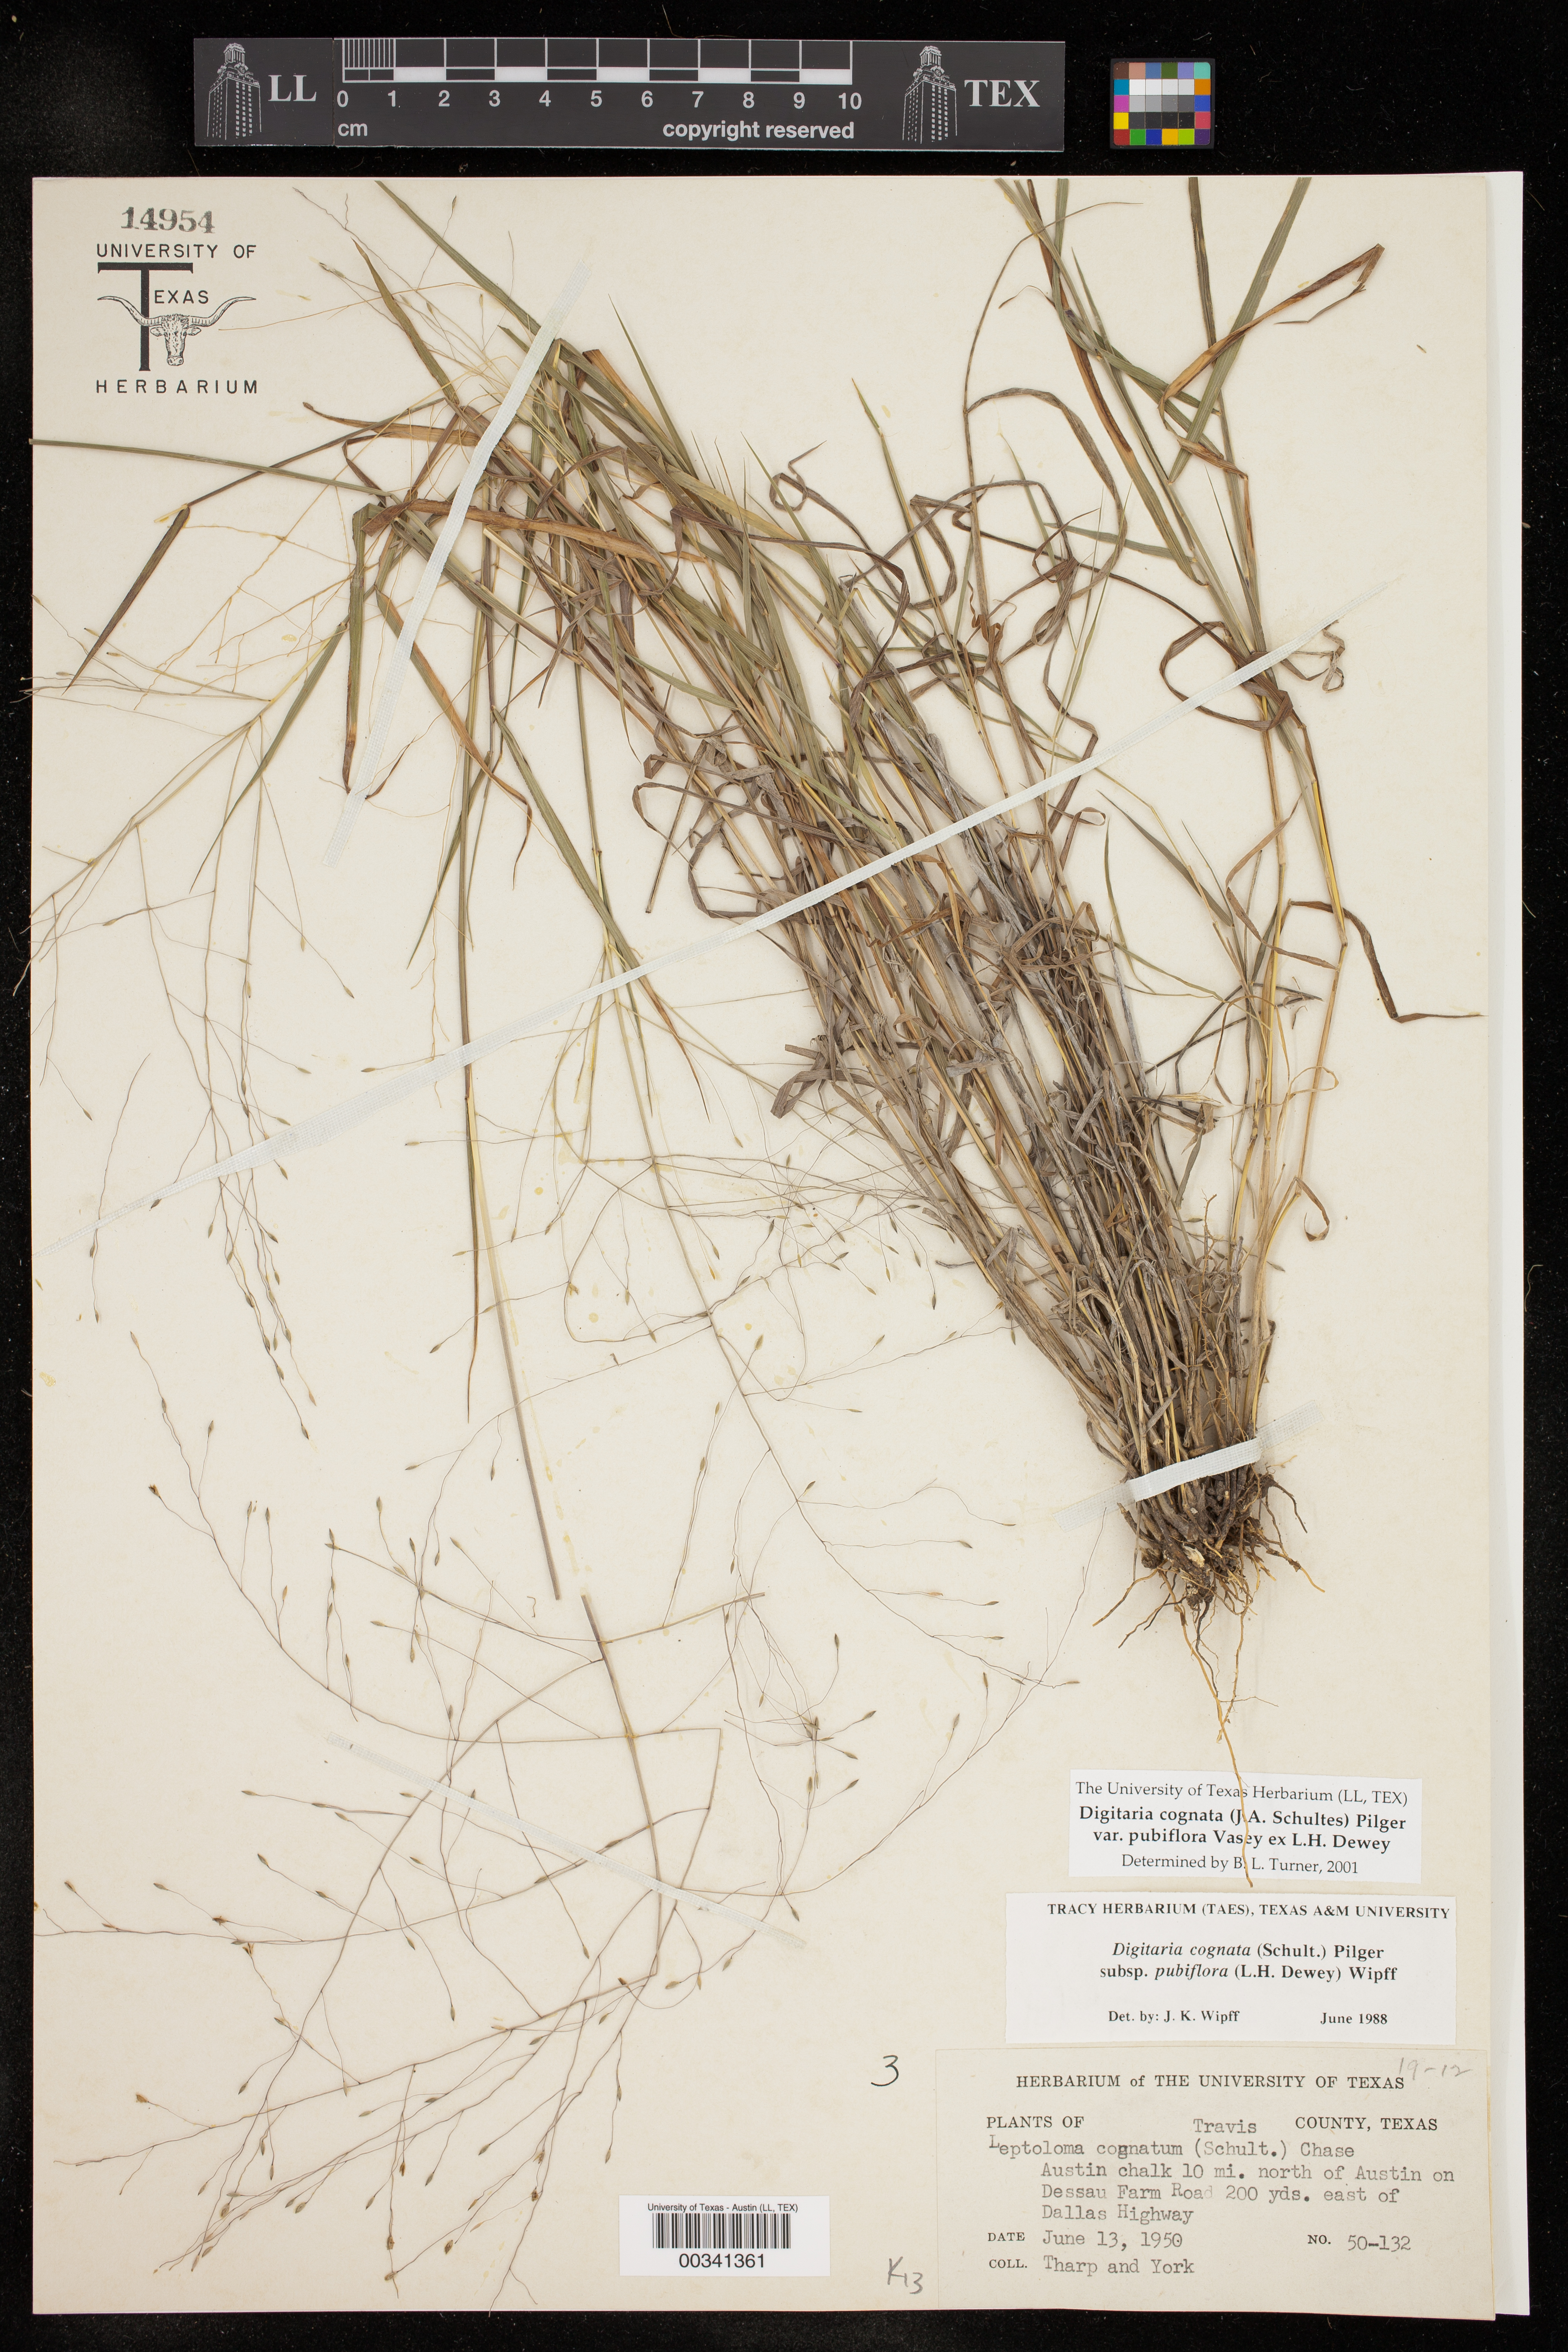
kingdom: Plantae
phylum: Tracheophyta
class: Liliopsida
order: Poales
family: Poaceae
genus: Digitaria
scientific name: Digitaria cognata
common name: Fall witchgrass
